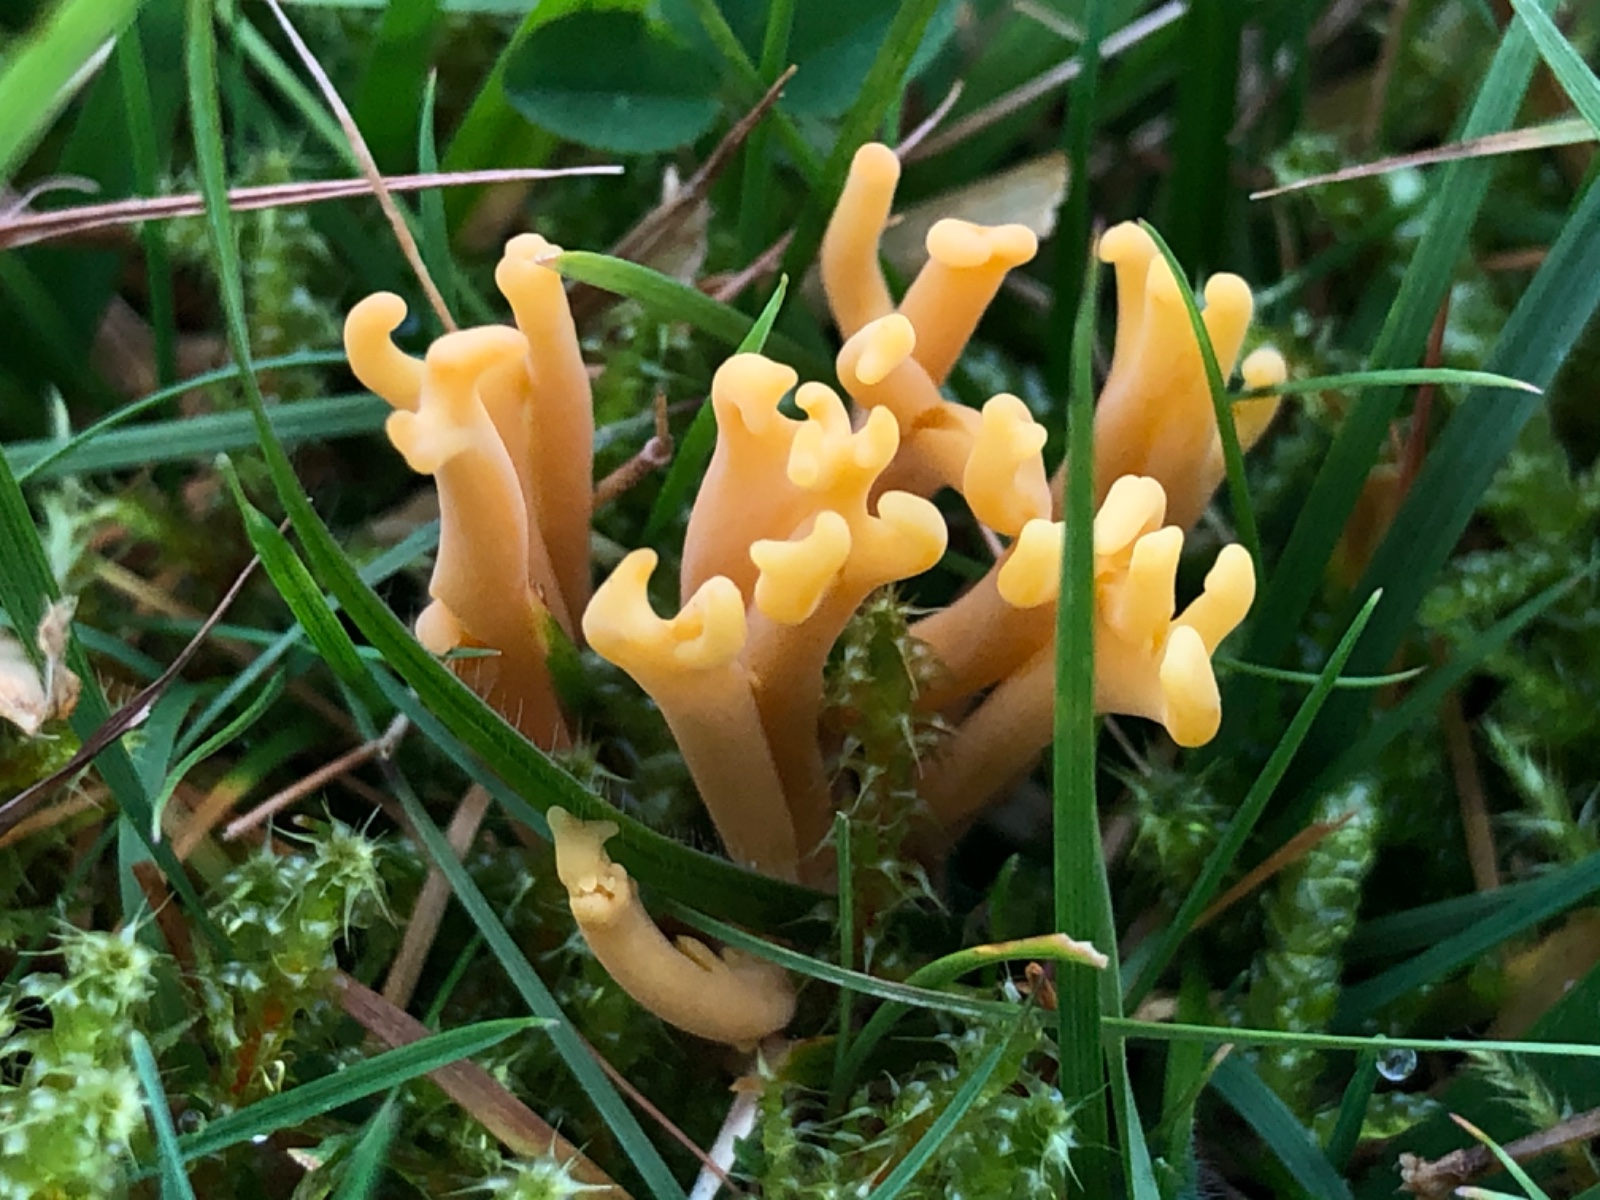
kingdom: Fungi
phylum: Basidiomycota
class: Agaricomycetes
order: Agaricales
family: Clavariaceae
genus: Clavulinopsis
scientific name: Clavulinopsis corniculata
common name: eng-køllesvamp
